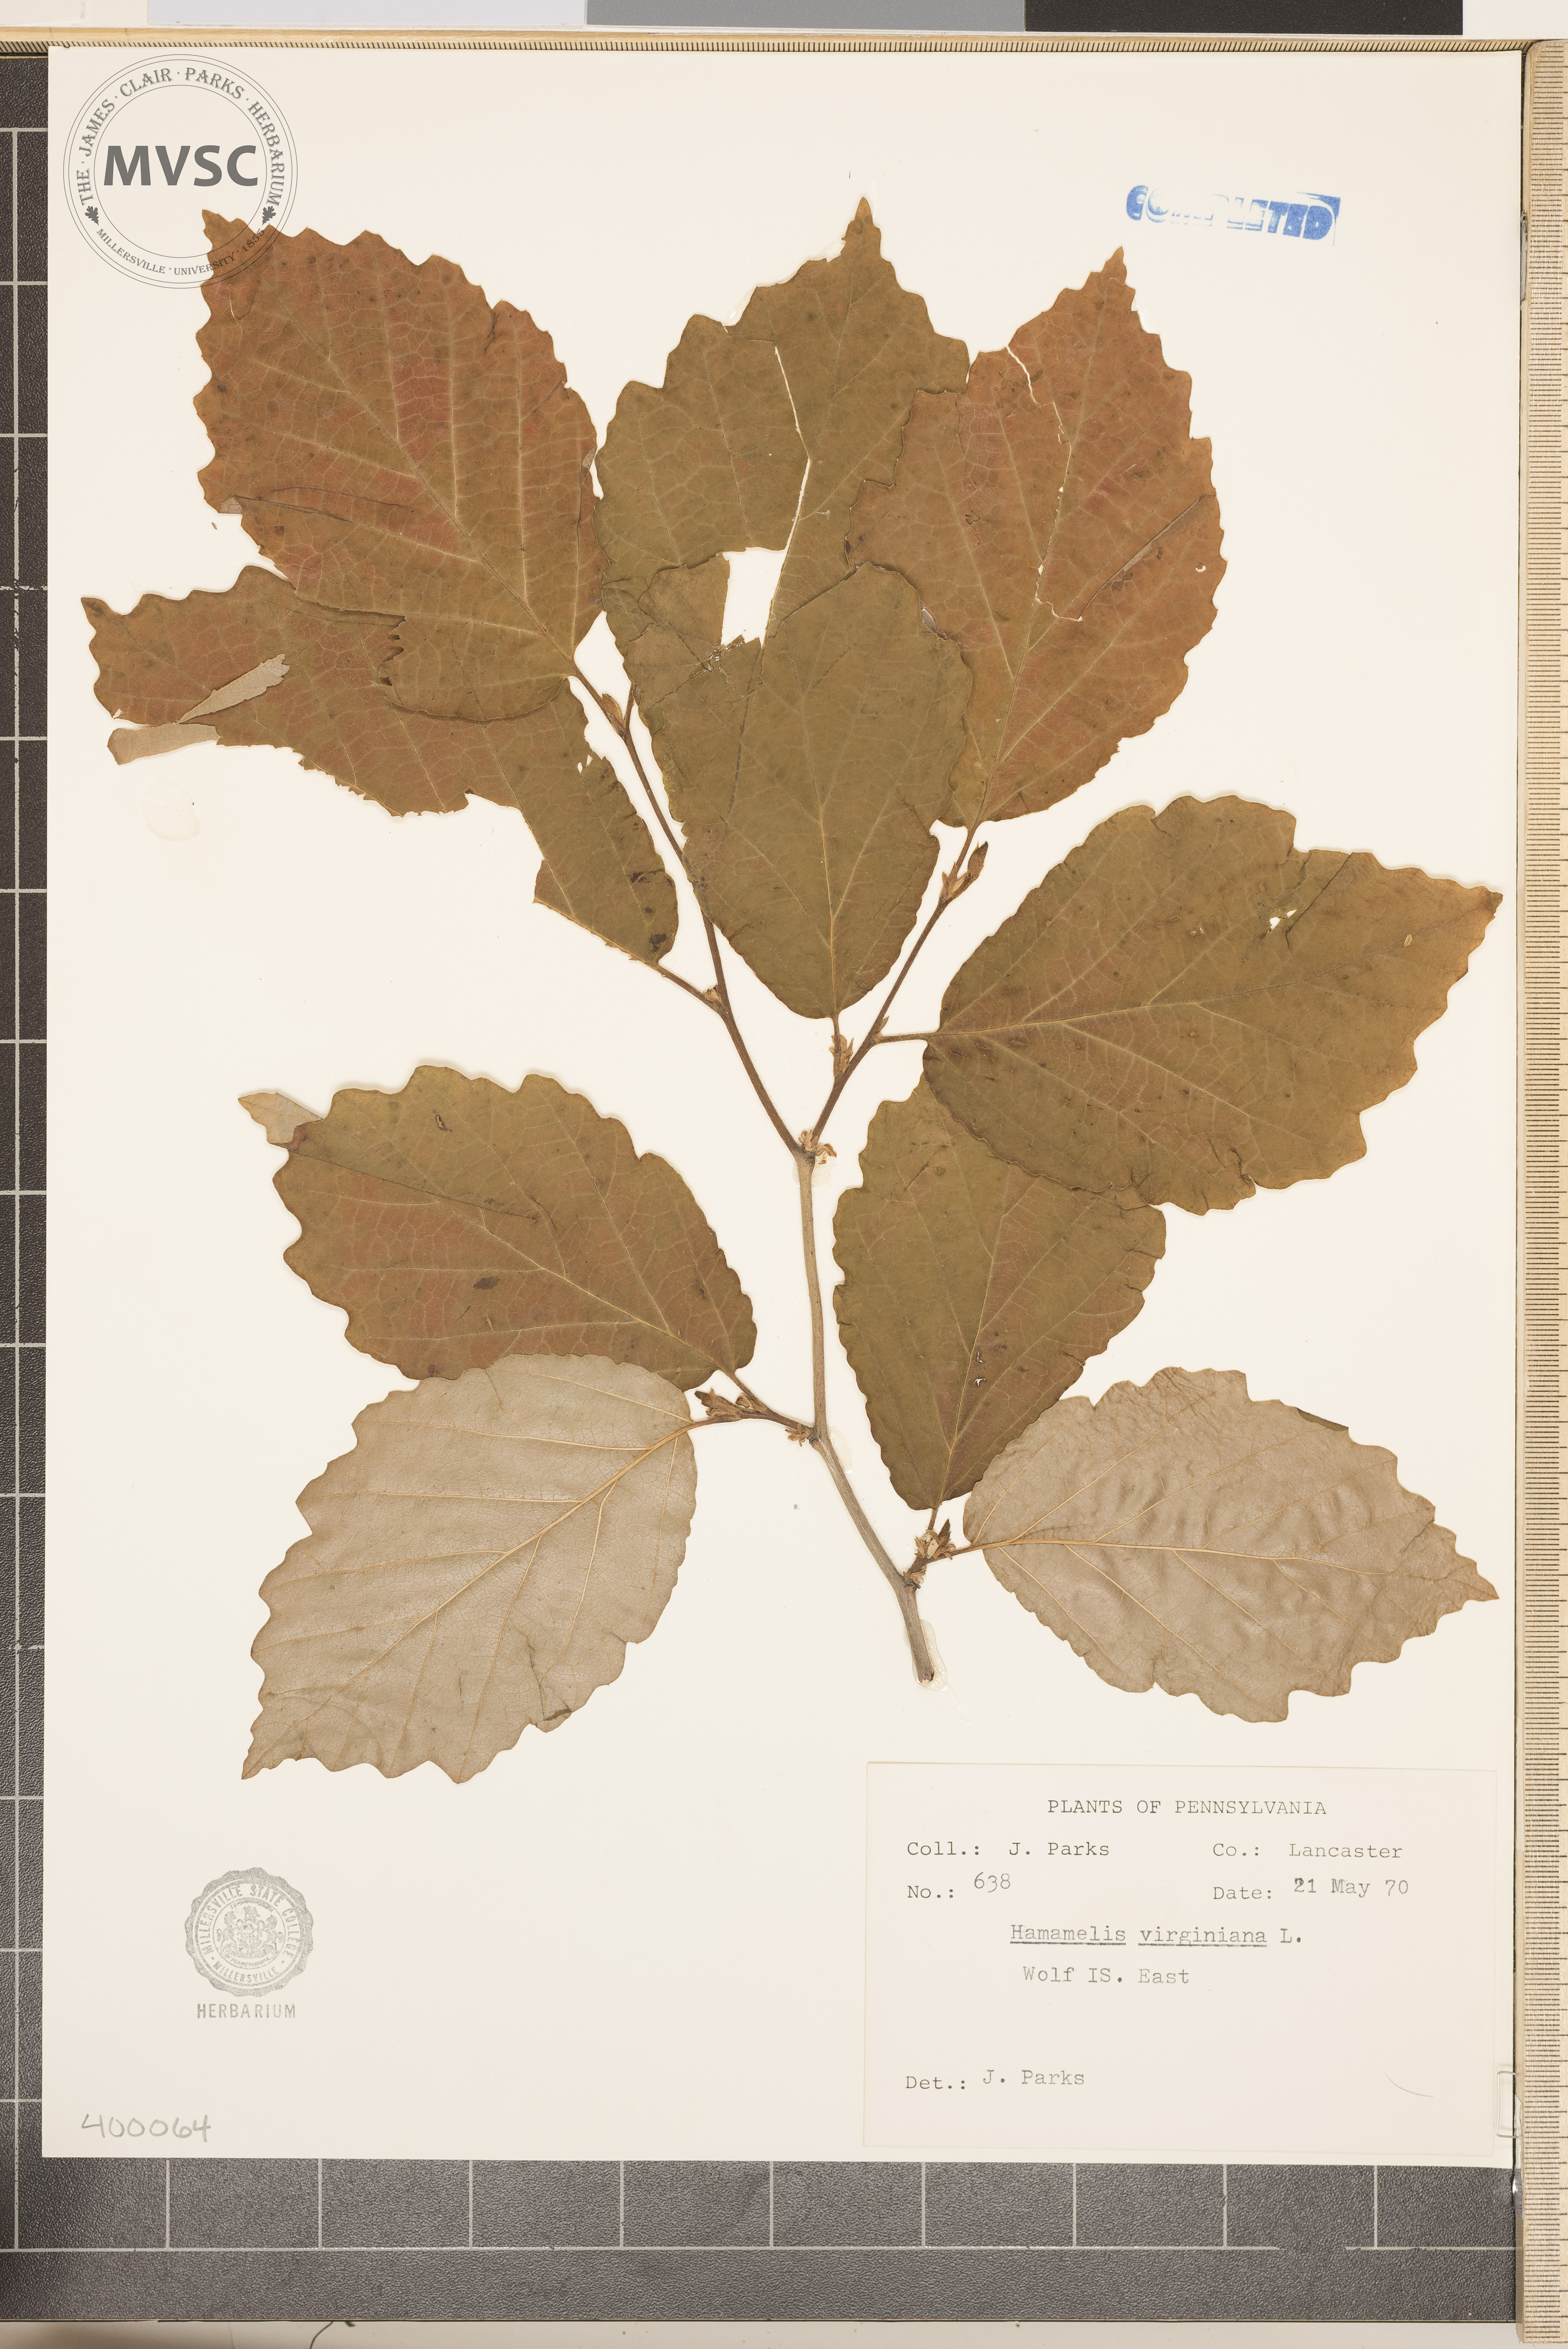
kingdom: Plantae
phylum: Tracheophyta
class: Magnoliopsida
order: Saxifragales
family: Hamamelidaceae
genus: Hamamelis
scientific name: Hamamelis virginiana
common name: witch-hazel
